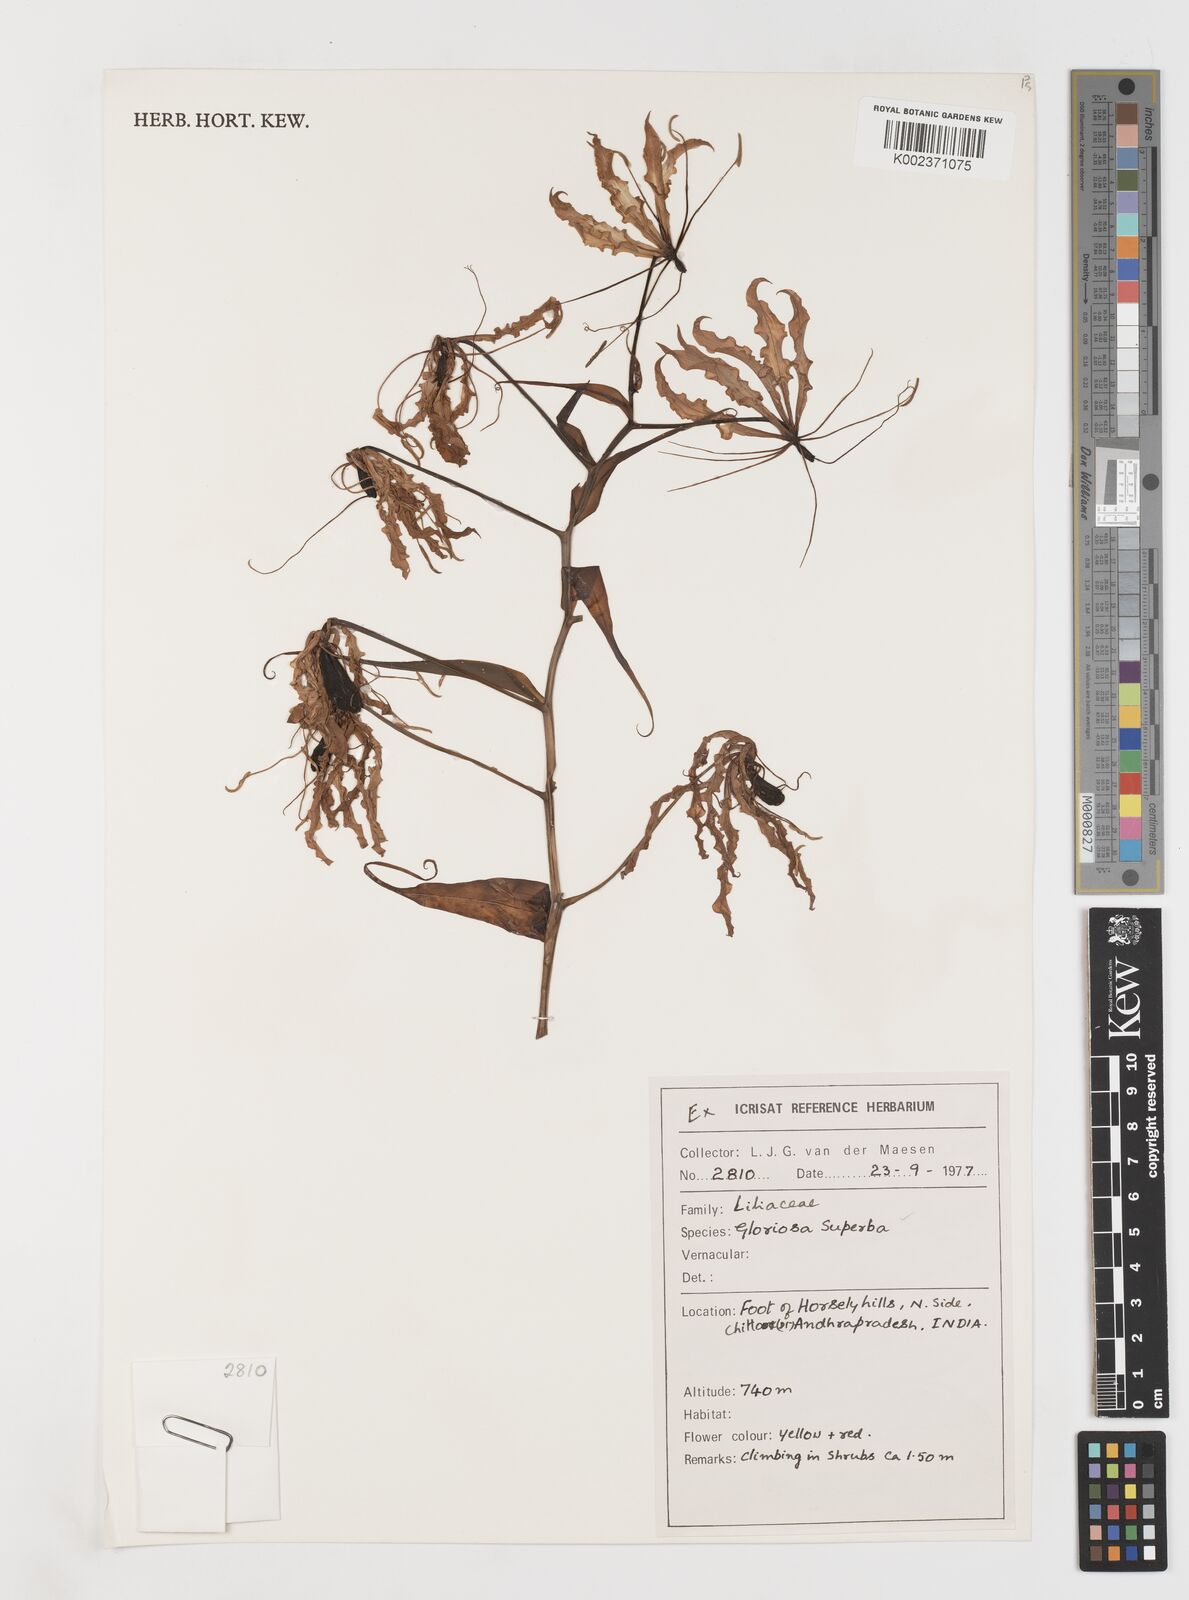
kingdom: Plantae
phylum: Tracheophyta
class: Liliopsida
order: Liliales
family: Colchicaceae
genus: Gloriosa
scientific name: Gloriosa superba
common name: Flame lily
